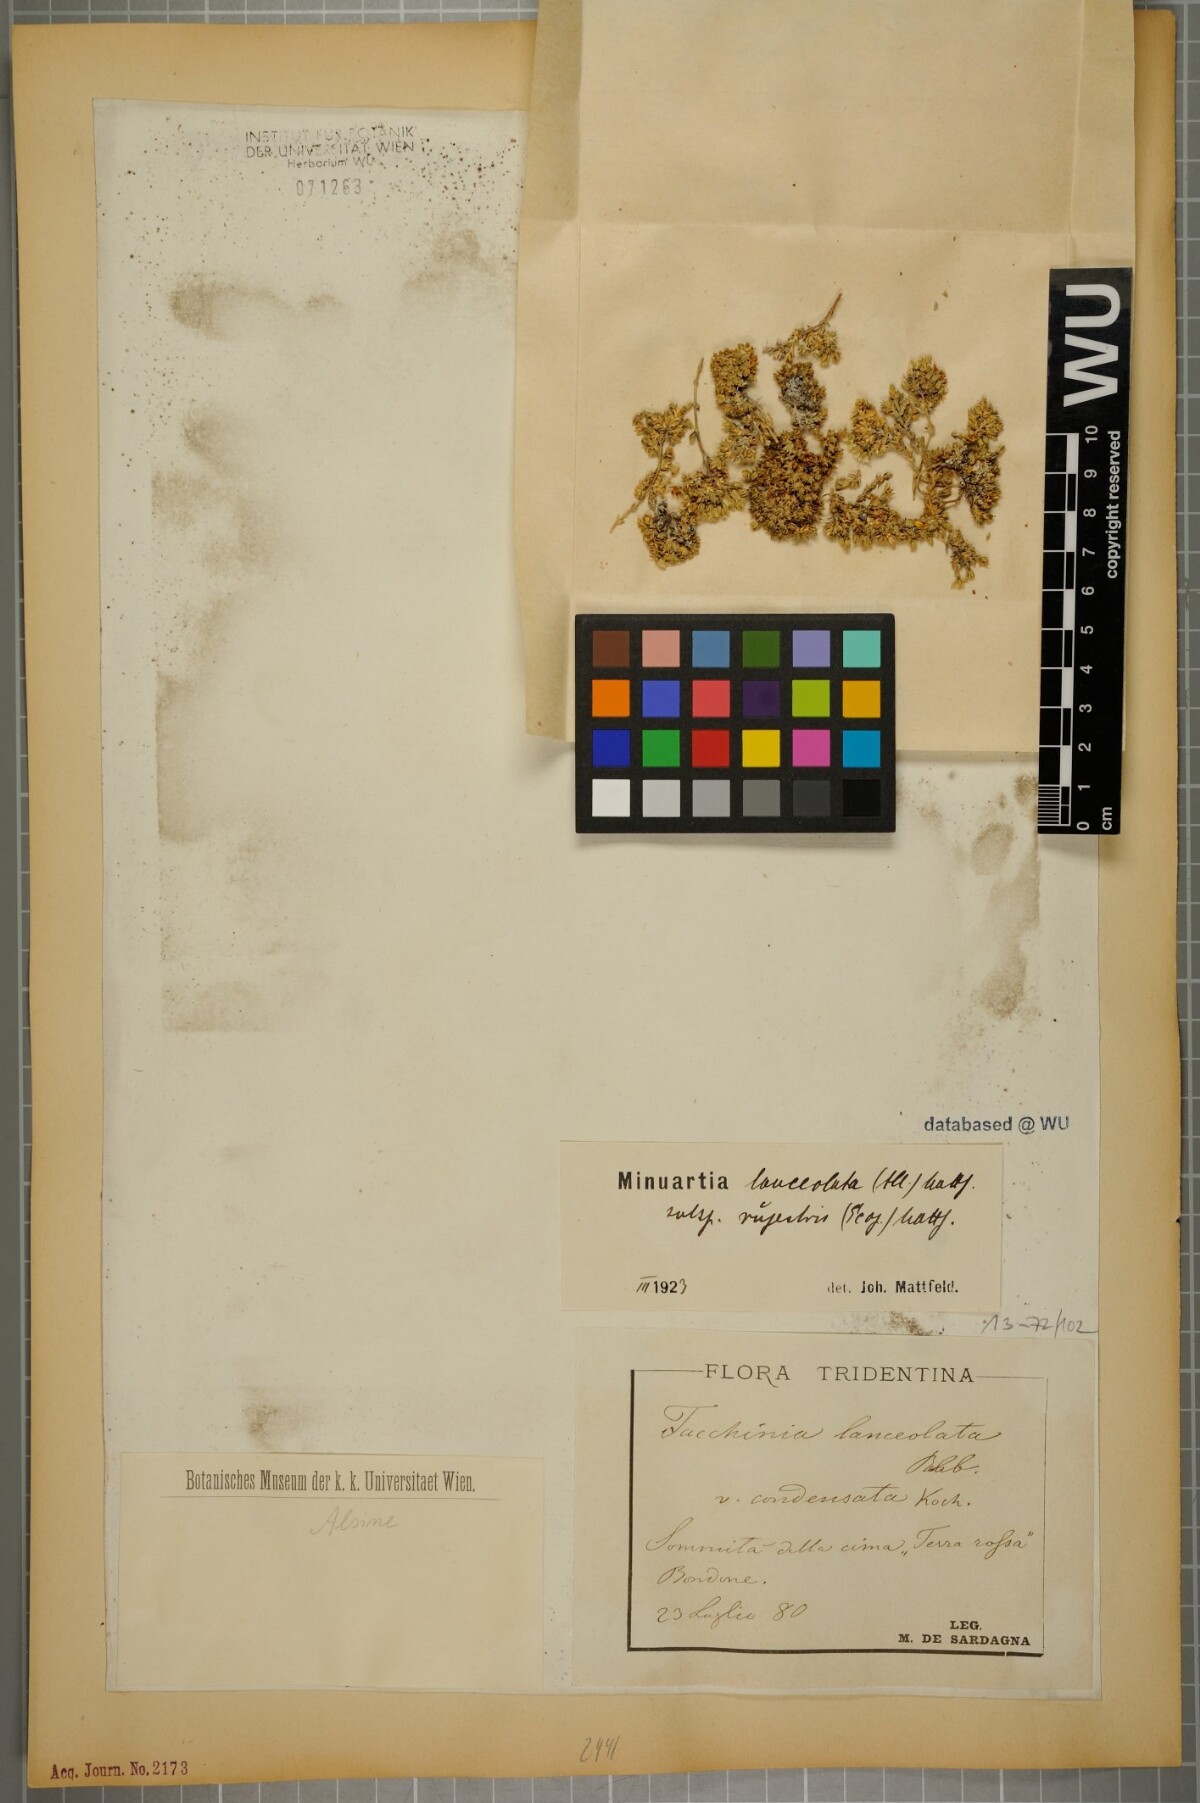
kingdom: Plantae
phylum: Tracheophyta
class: Magnoliopsida
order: Caryophyllales
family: Caryophyllaceae
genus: Facchinia
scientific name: Facchinia rupestris
